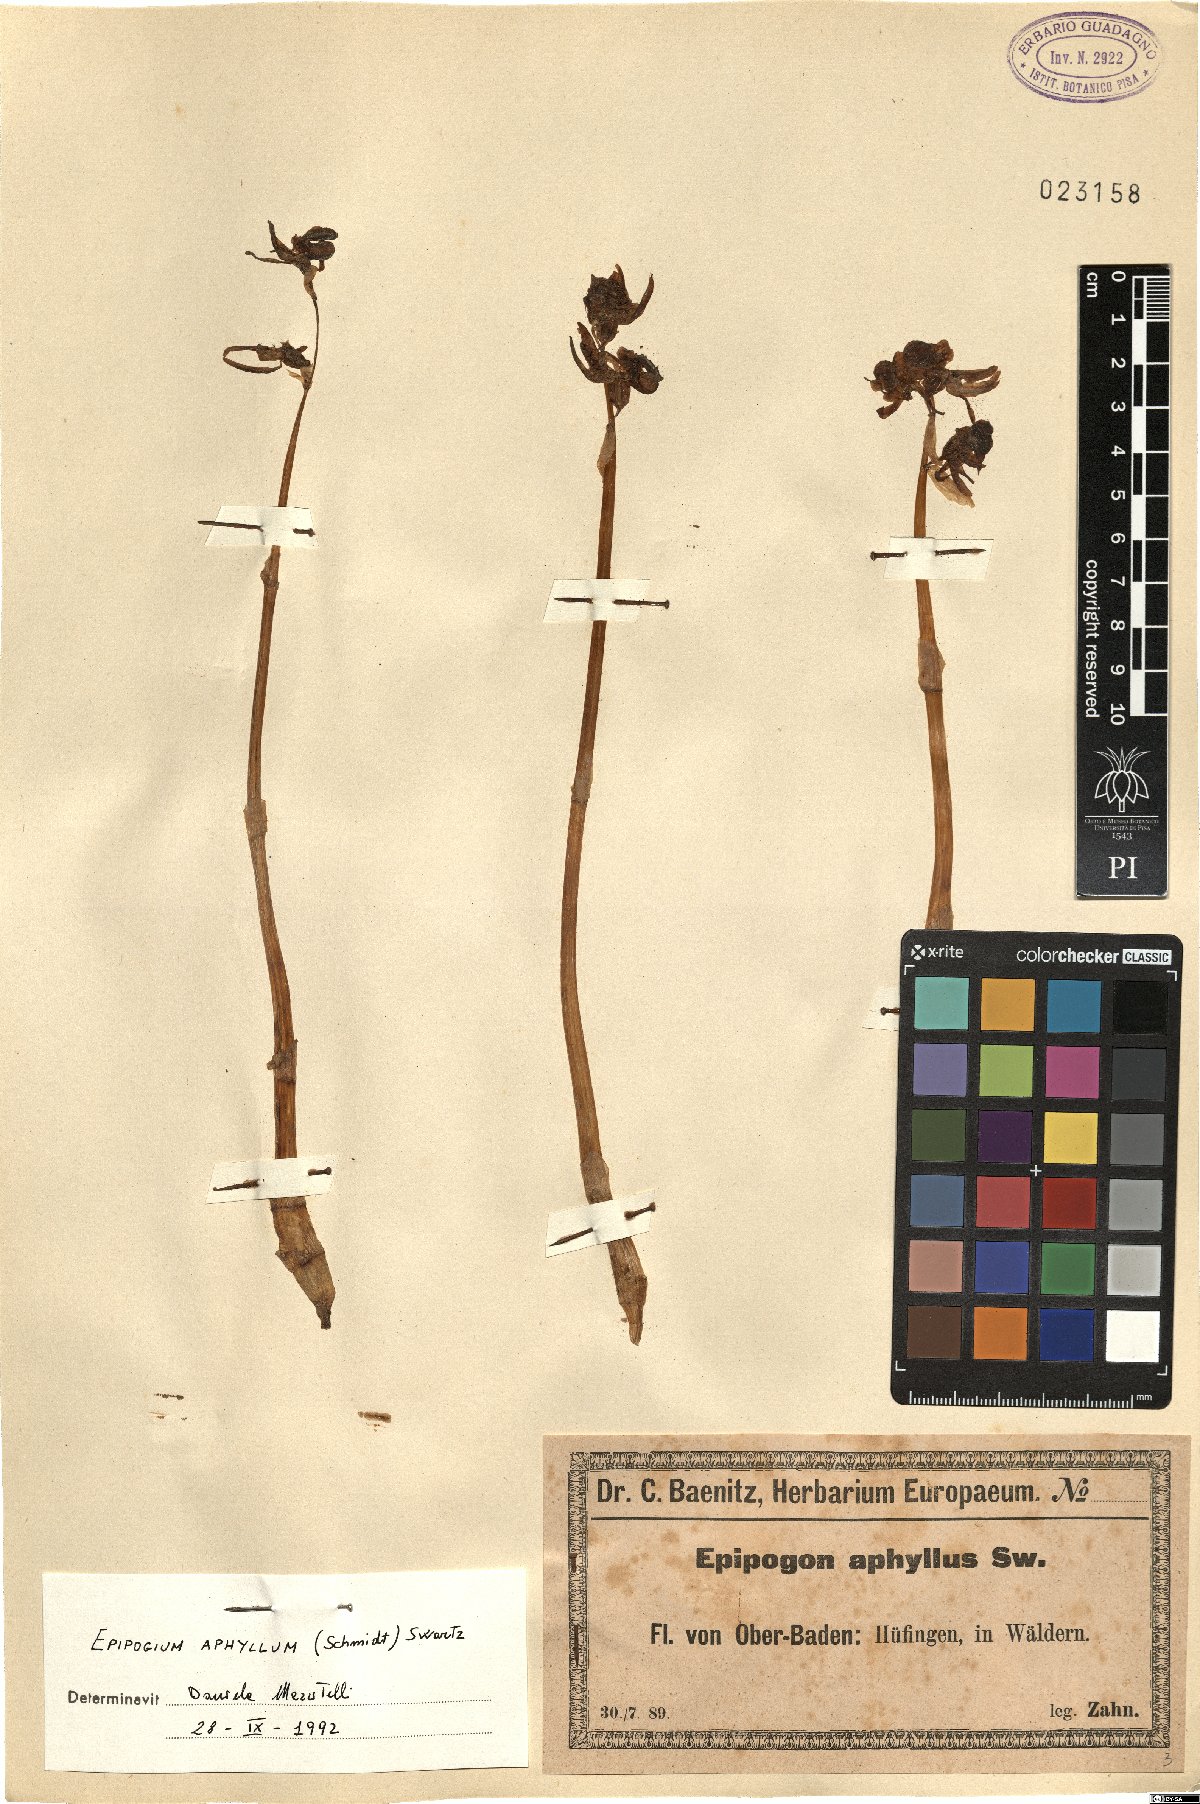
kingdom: Plantae
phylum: Tracheophyta
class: Liliopsida
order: Asparagales
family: Orchidaceae
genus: Epipogium
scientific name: Epipogium aphyllum
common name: Ghost orchid
